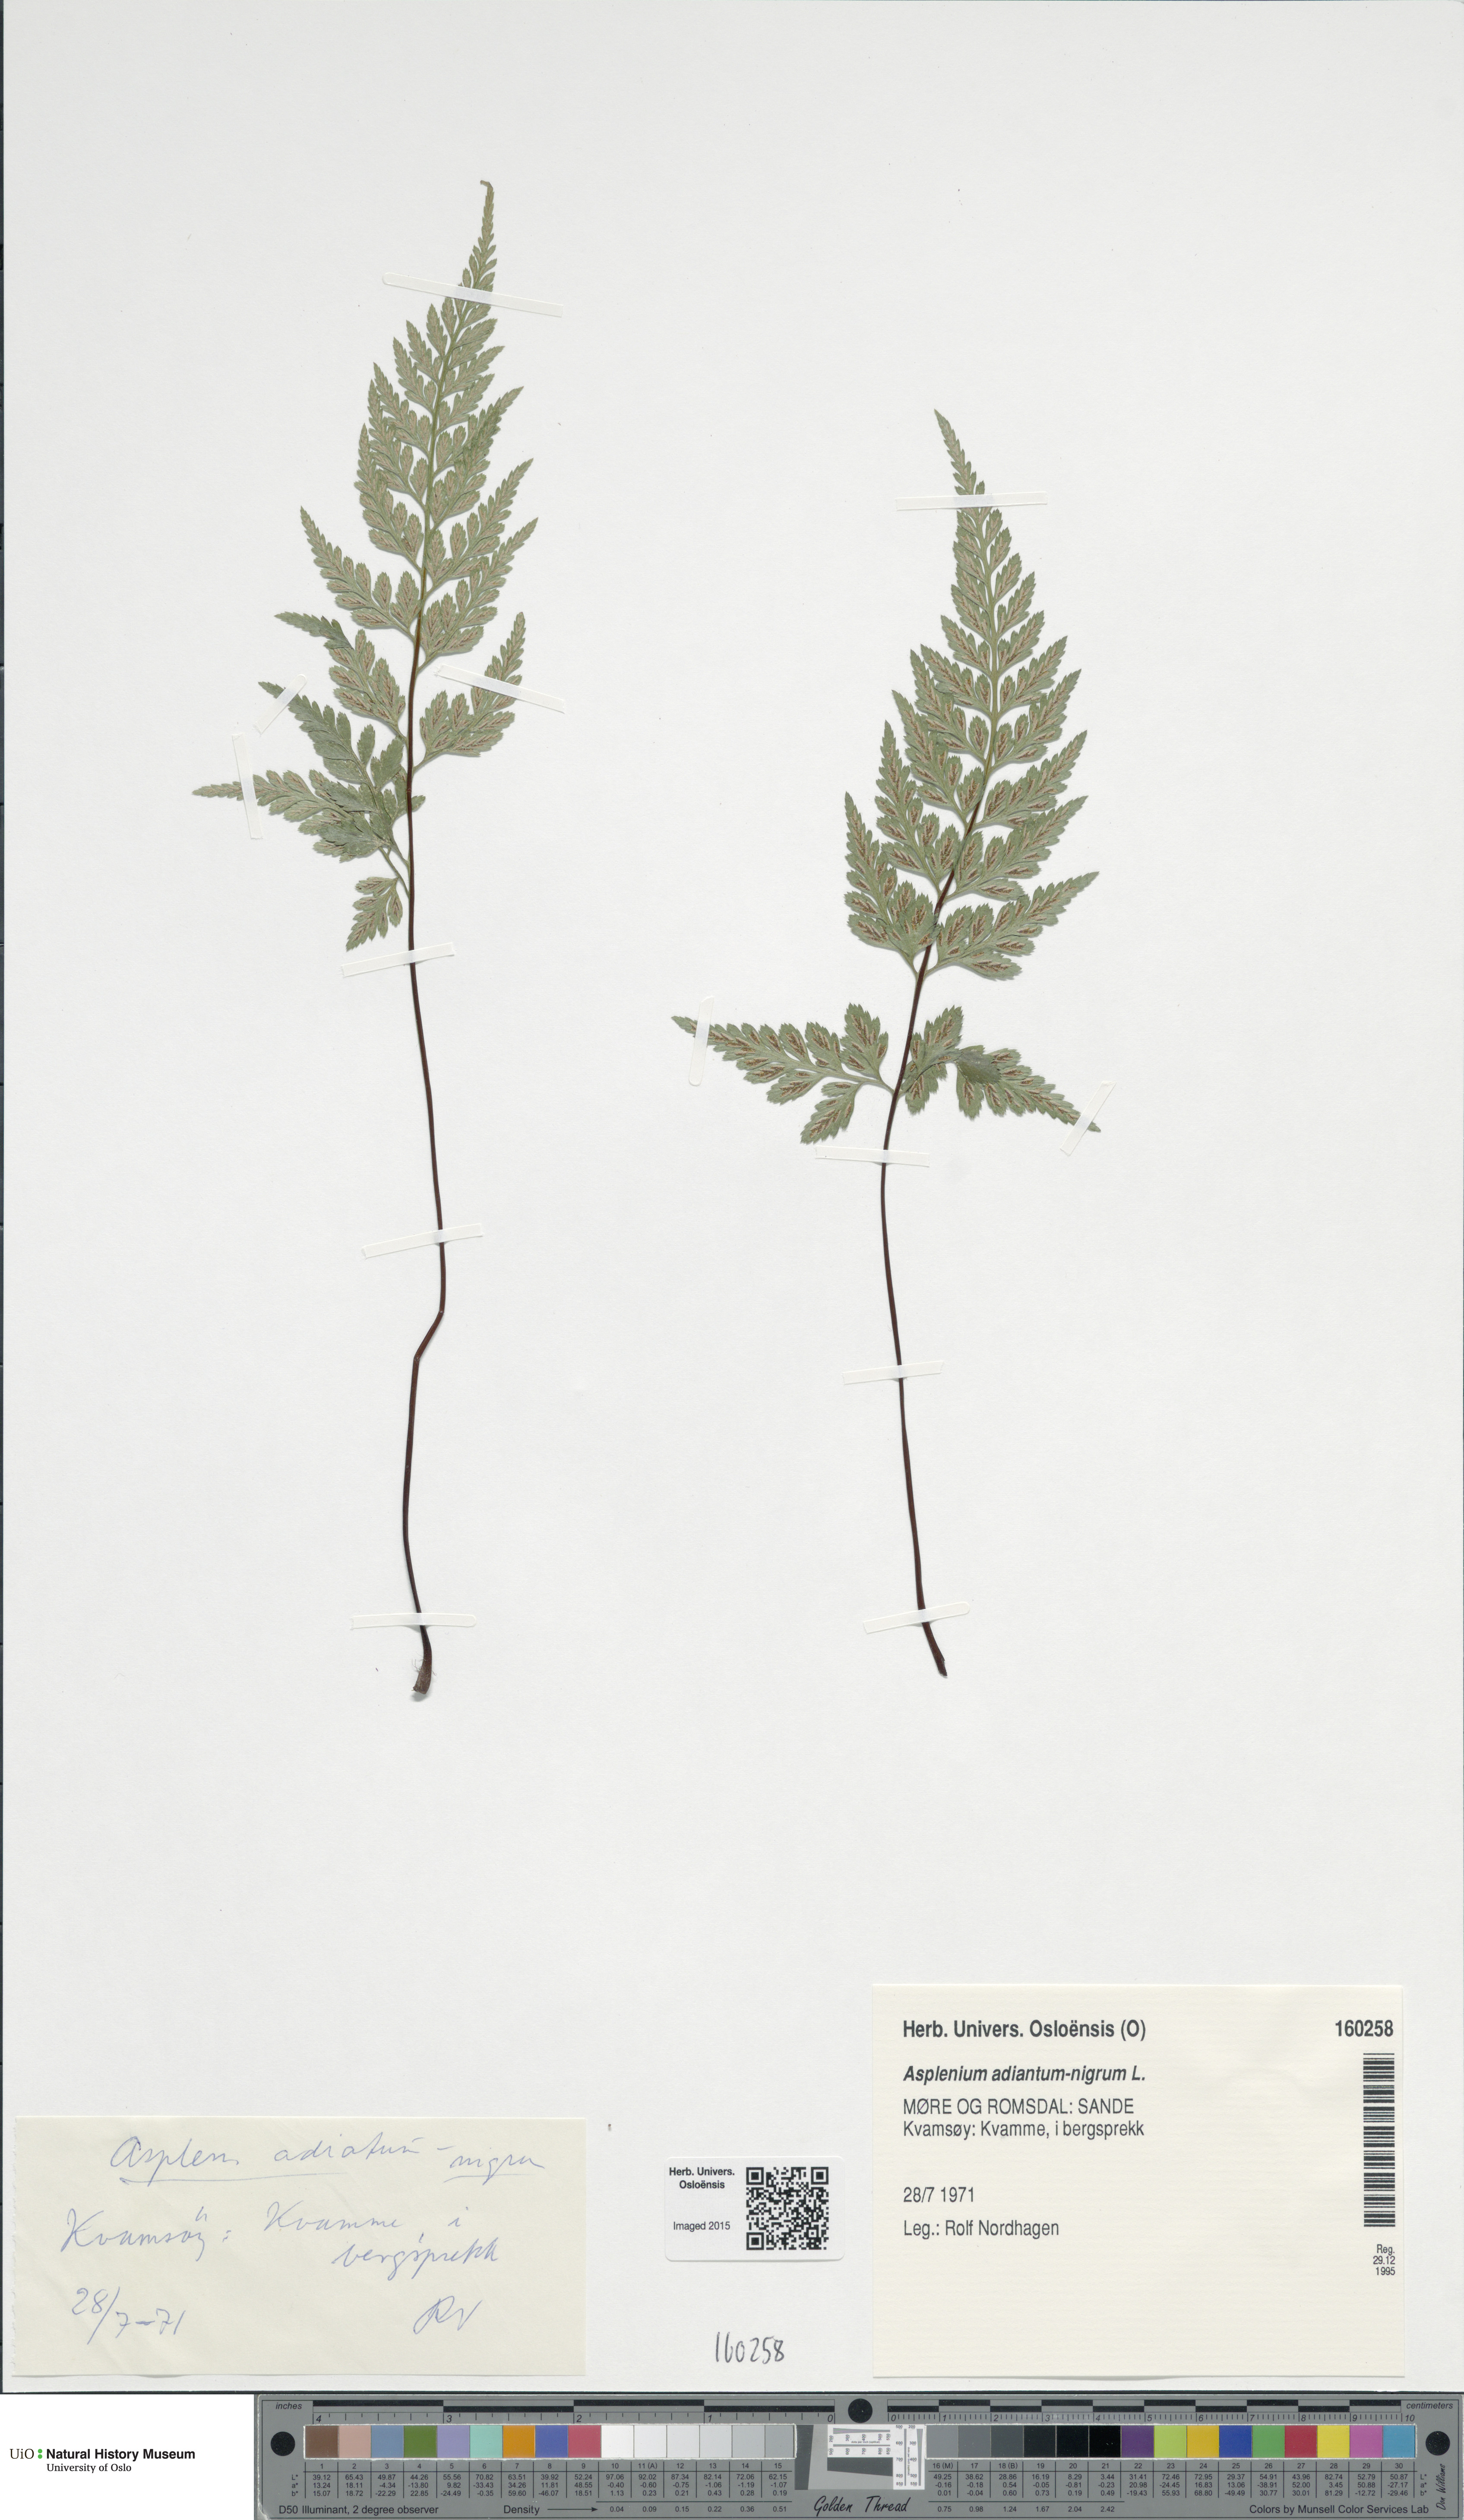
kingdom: Plantae
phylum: Tracheophyta
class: Polypodiopsida
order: Polypodiales
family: Aspleniaceae
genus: Asplenium
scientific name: Asplenium adiantum-nigrum
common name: Black spleenwort
